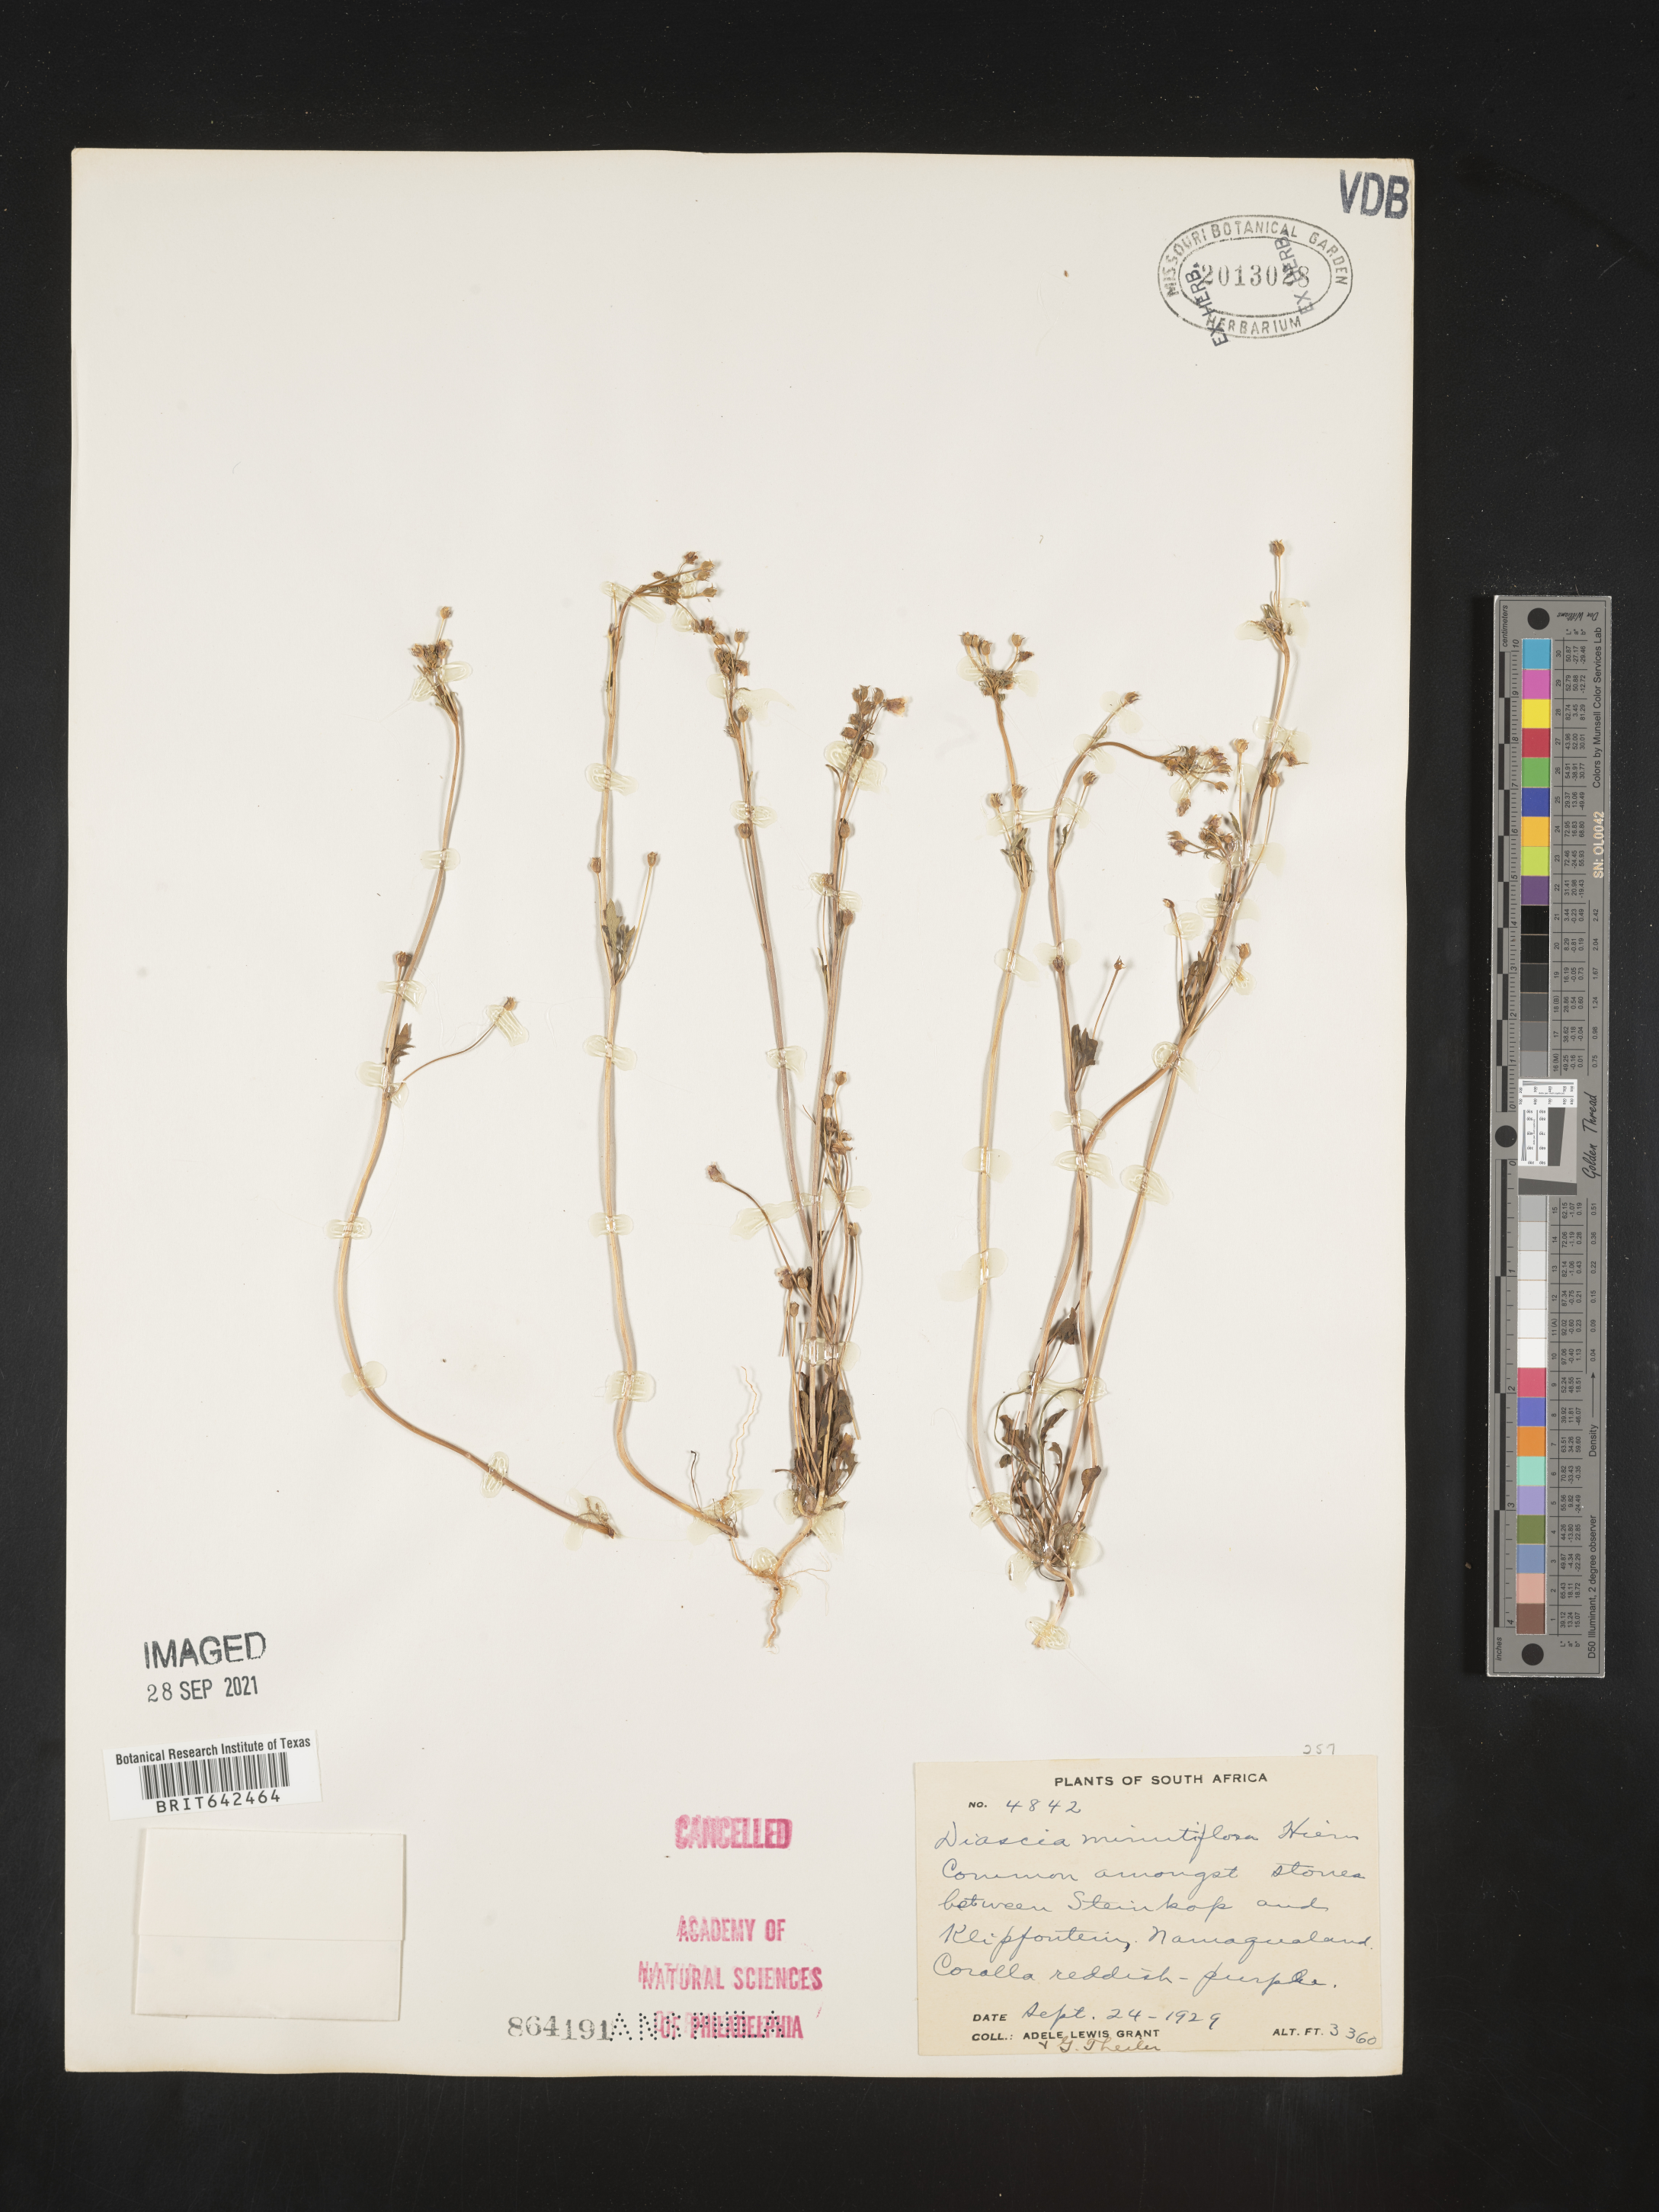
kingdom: Plantae
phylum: Tracheophyta
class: Magnoliopsida
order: Lamiales
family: Scrophulariaceae
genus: Diascia
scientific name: Diascia
